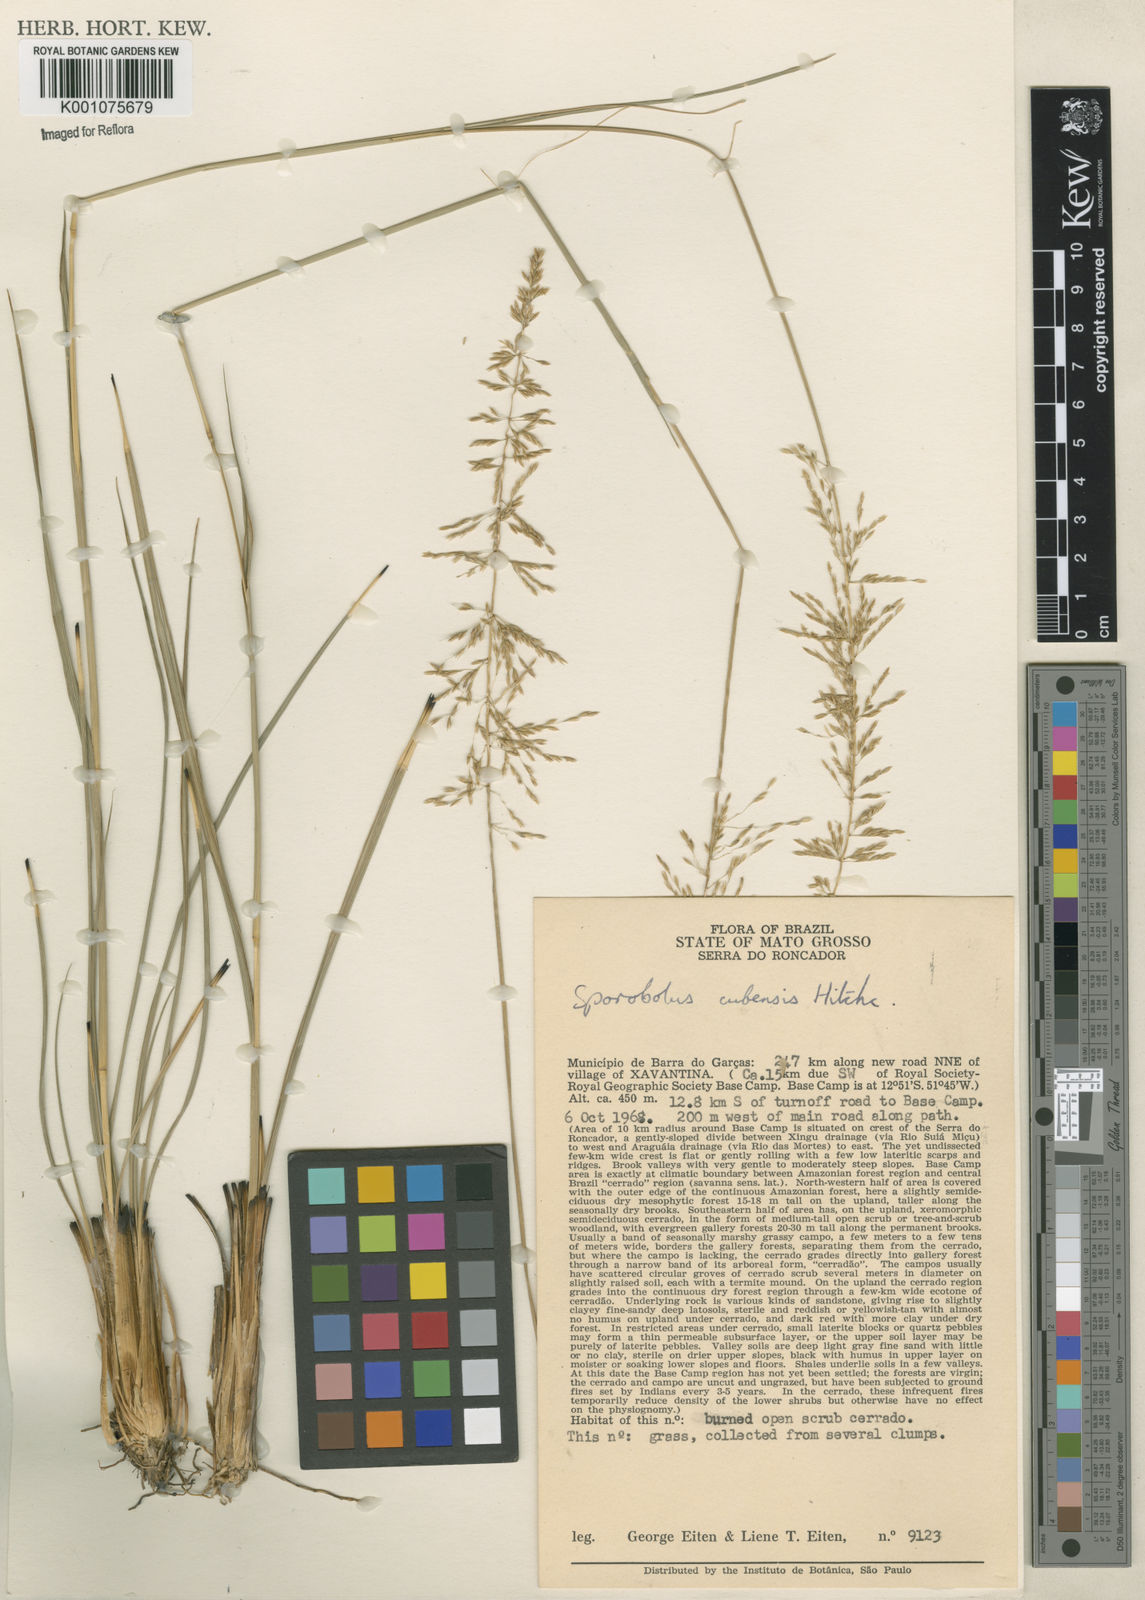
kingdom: Plantae
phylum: Tracheophyta
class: Liliopsida
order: Poales
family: Poaceae
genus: Sporobolus
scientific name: Sporobolus cubensis
